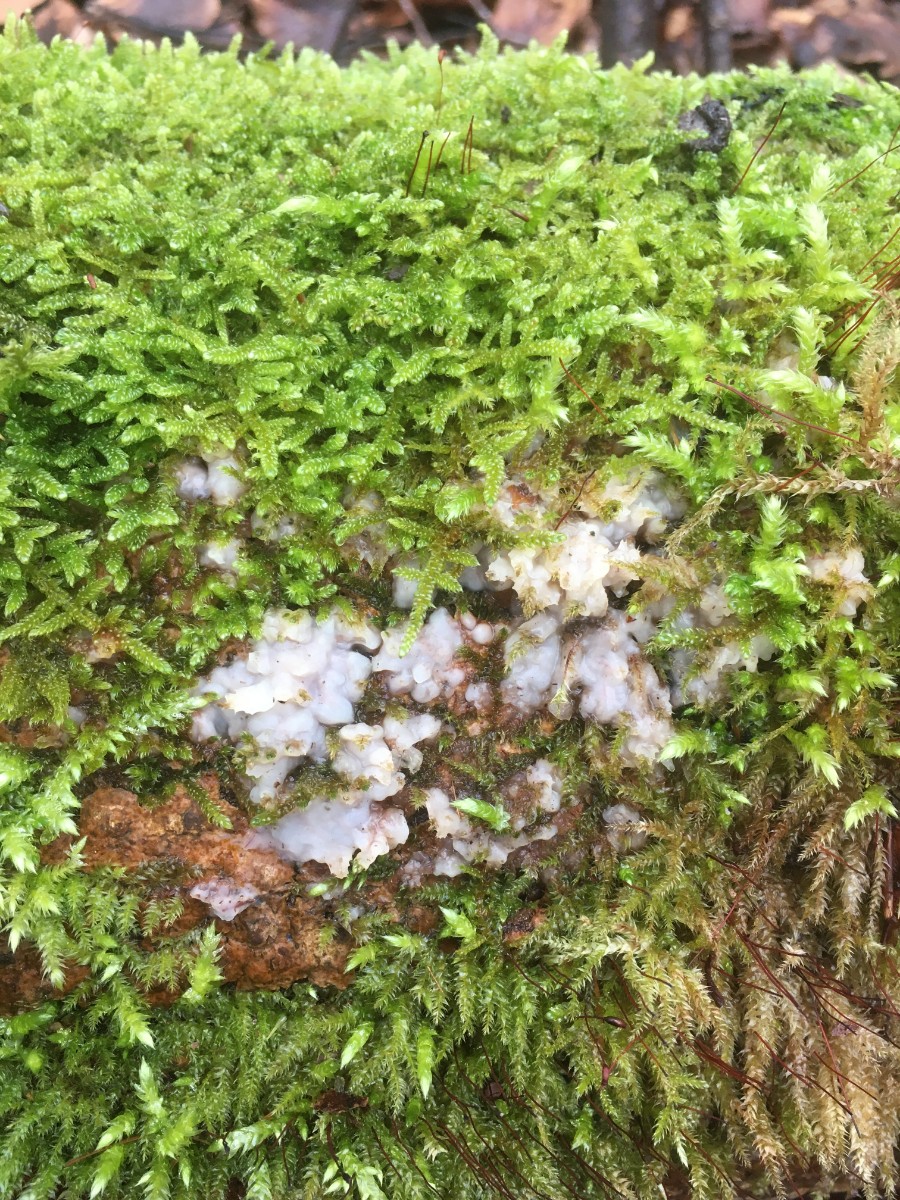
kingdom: Fungi
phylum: Basidiomycota
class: Agaricomycetes
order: Auriculariales
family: Auriculariaceae
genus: Exidia
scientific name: Exidia thuretiana
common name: hvidlig bævretop
